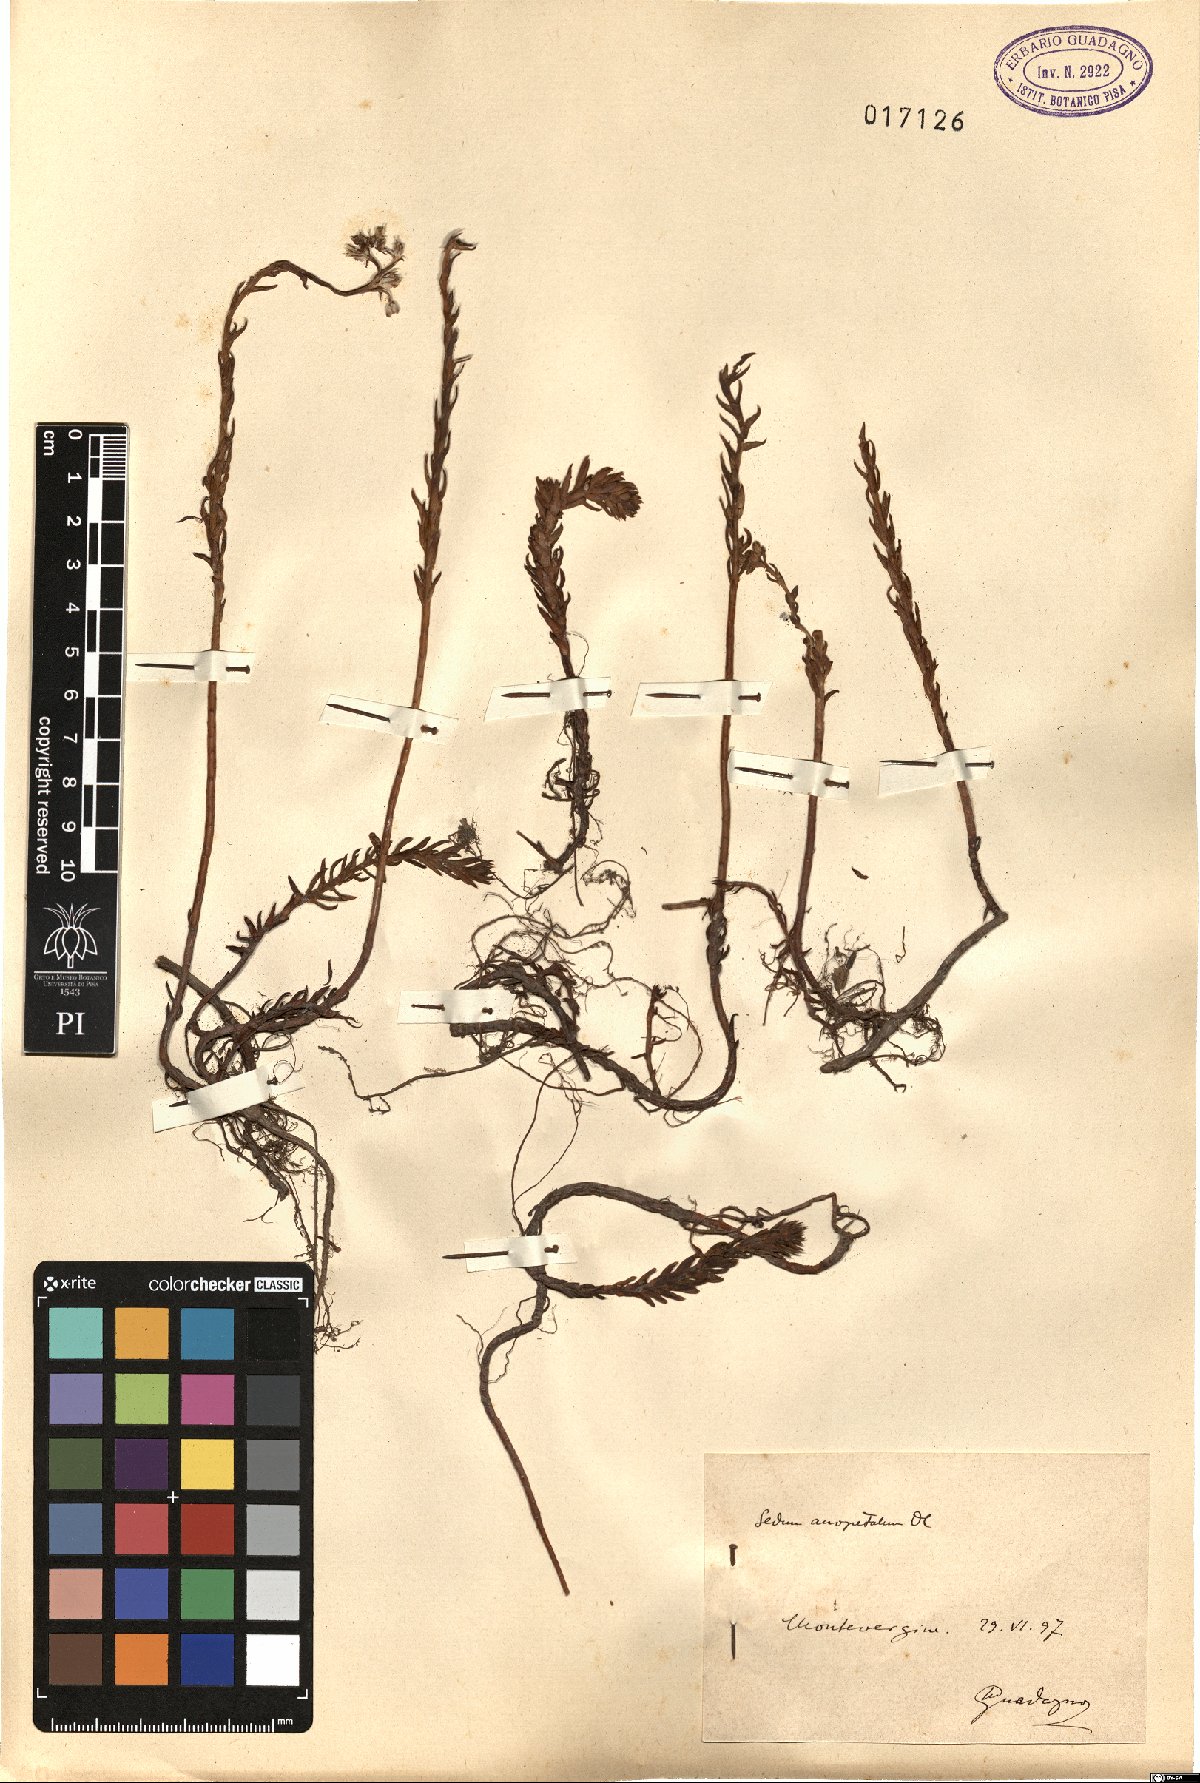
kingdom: Plantae
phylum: Tracheophyta
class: Magnoliopsida
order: Saxifragales
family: Crassulaceae
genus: Petrosedum
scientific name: Petrosedum
